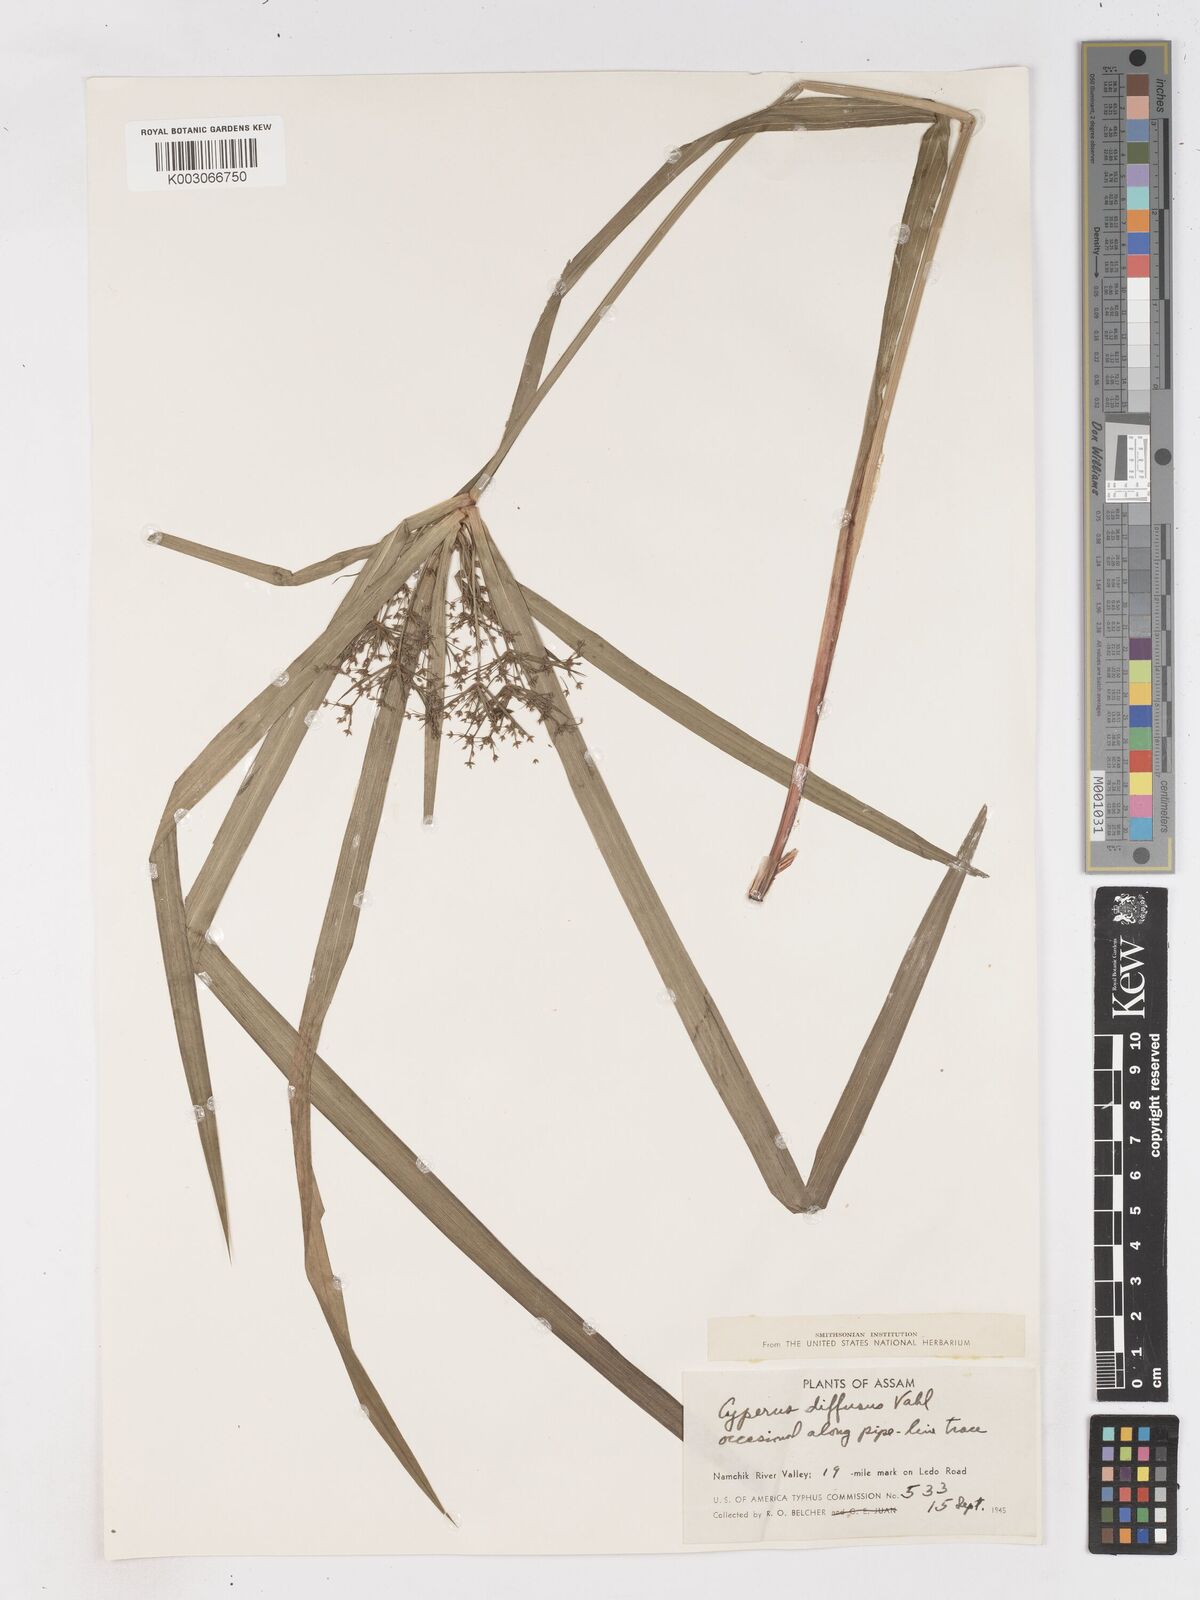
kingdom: Plantae
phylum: Tracheophyta
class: Liliopsida
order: Poales
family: Cyperaceae
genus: Cyperus
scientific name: Cyperus diffusus
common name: Dwarf umbrella grass
